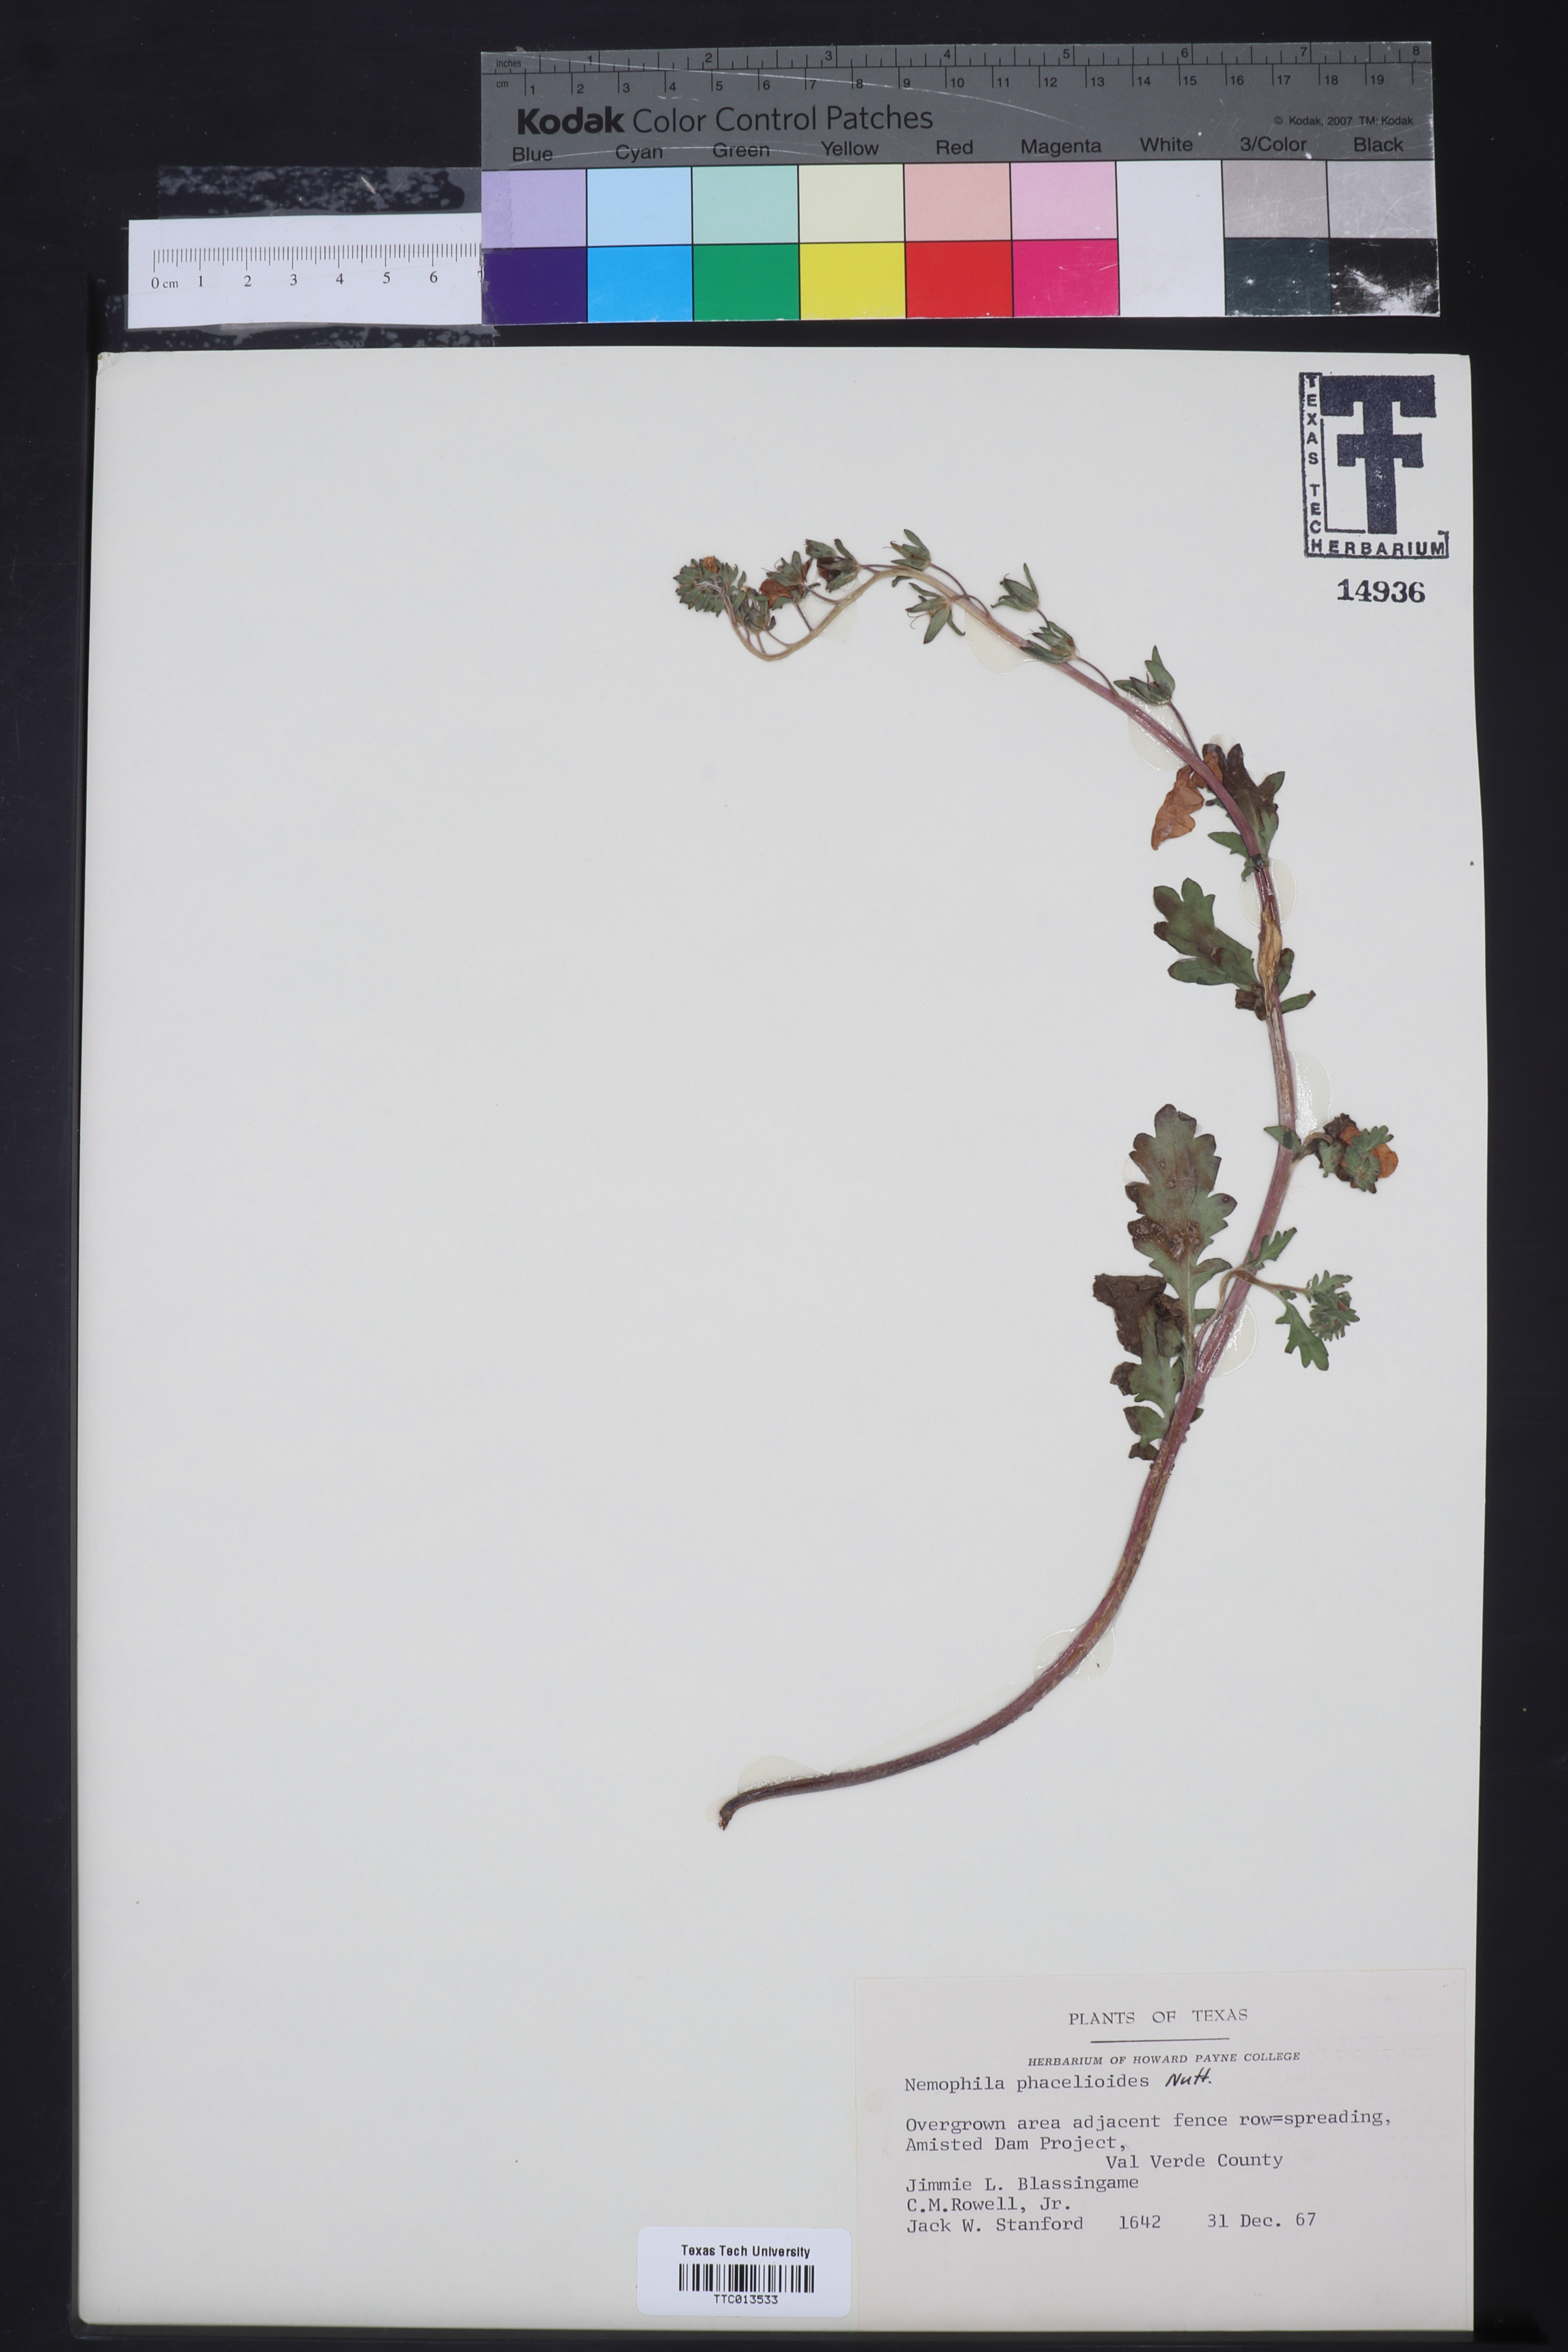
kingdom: Plantae
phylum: Tracheophyta
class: Magnoliopsida
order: Boraginales
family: Hydrophyllaceae
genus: Nemophila
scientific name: Nemophila phacelioides
